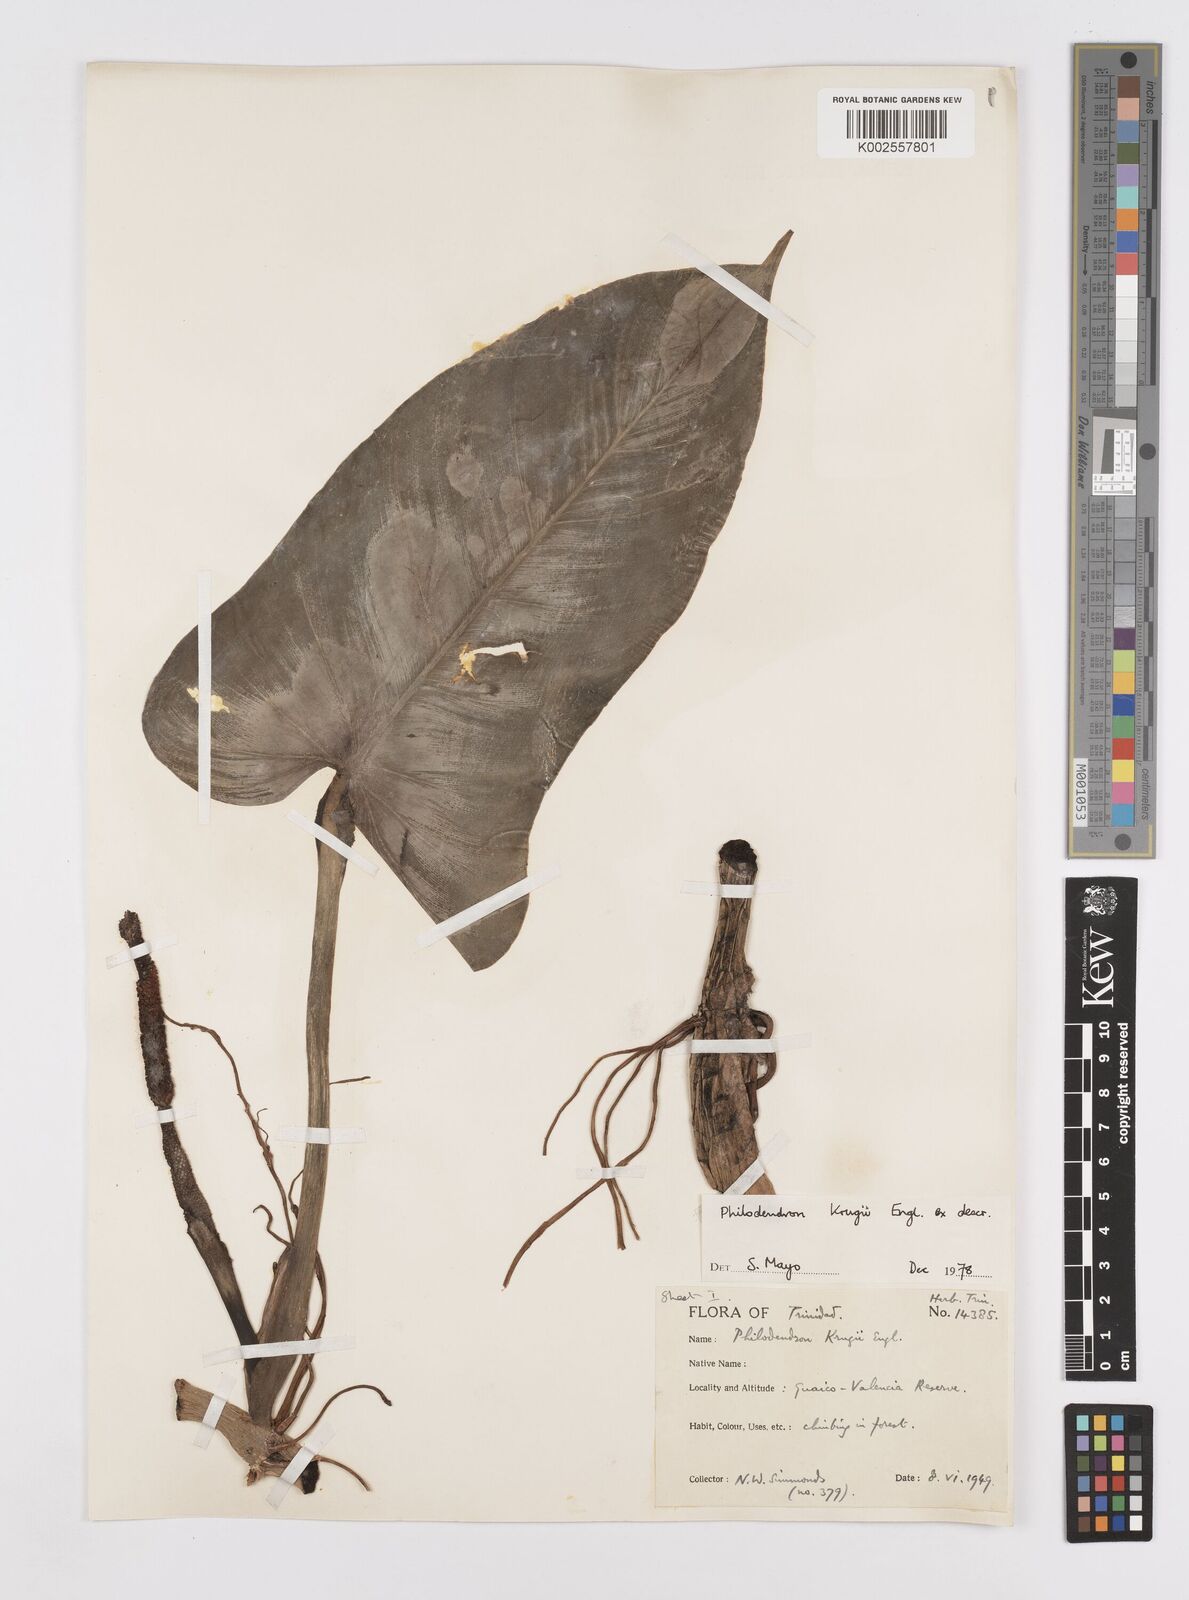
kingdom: Plantae
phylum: Tracheophyta
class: Liliopsida
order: Alismatales
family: Araceae
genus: Philodendron
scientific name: Philodendron krugii
